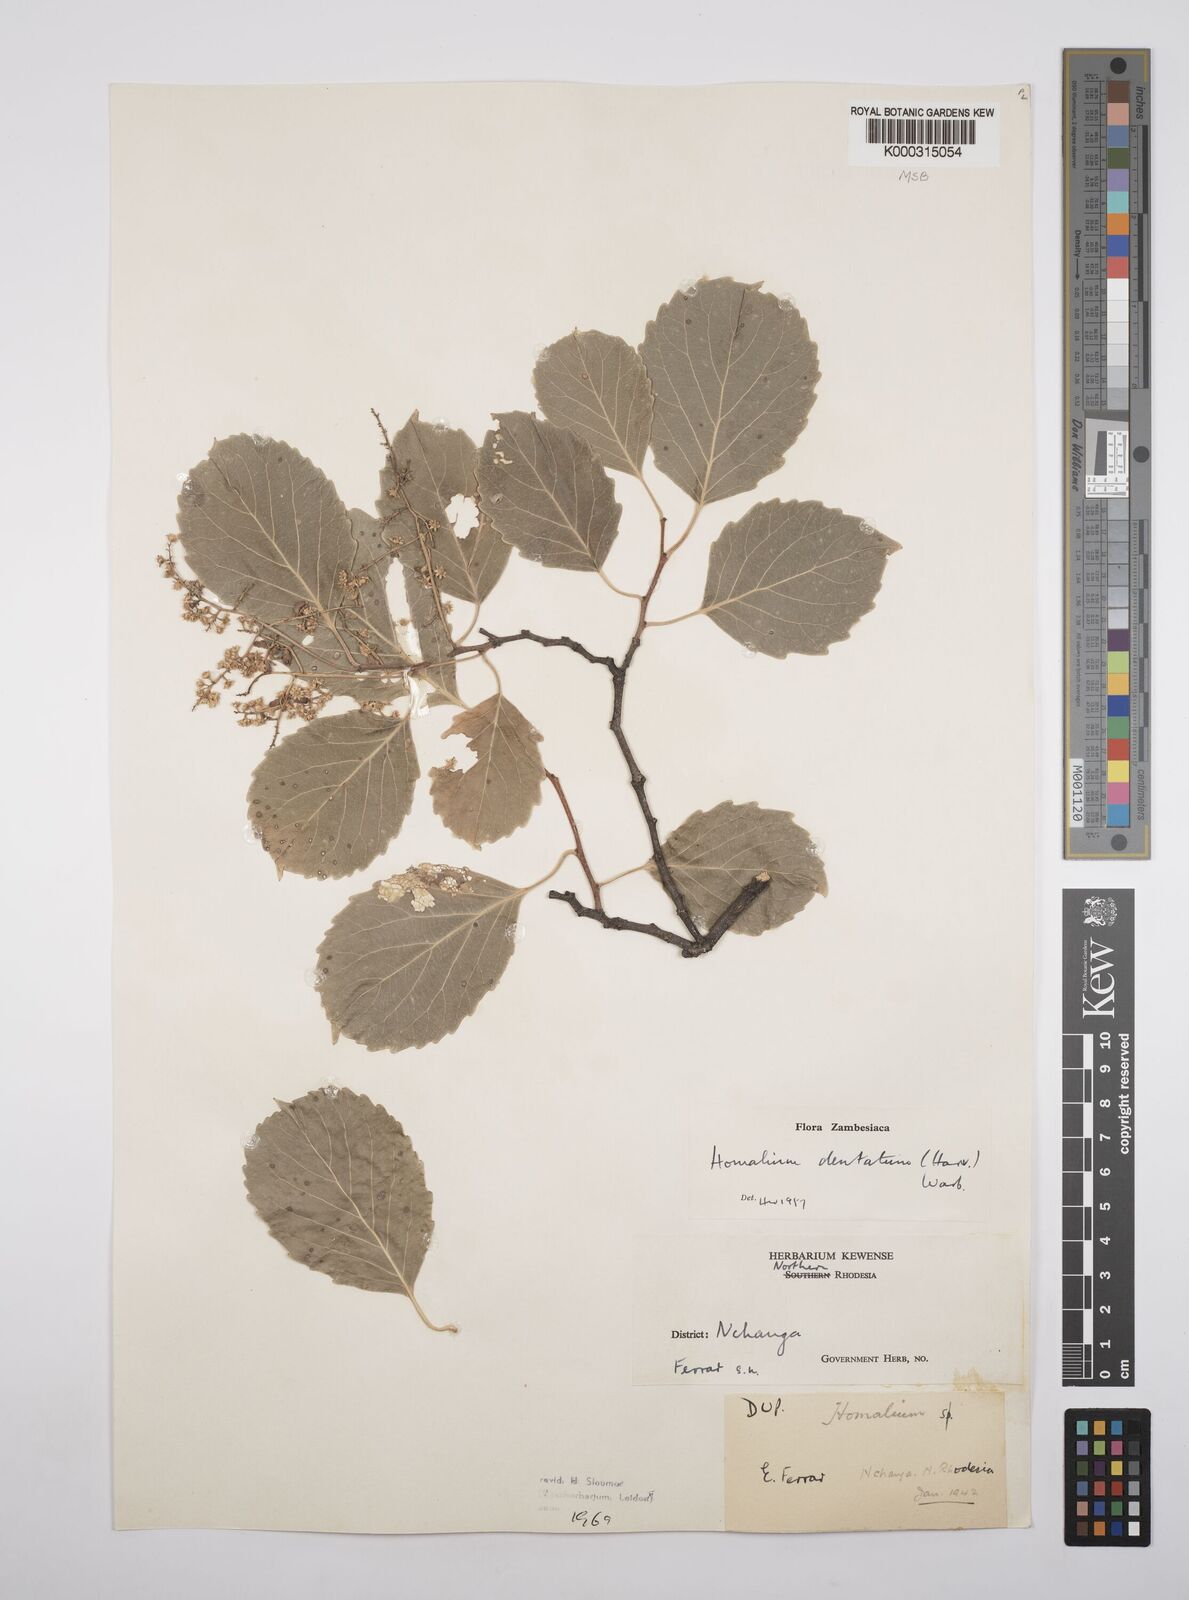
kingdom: Plantae
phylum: Tracheophyta
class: Magnoliopsida
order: Malpighiales
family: Salicaceae
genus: Homalium
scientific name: Homalium dentatum
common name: Brown ironwood
